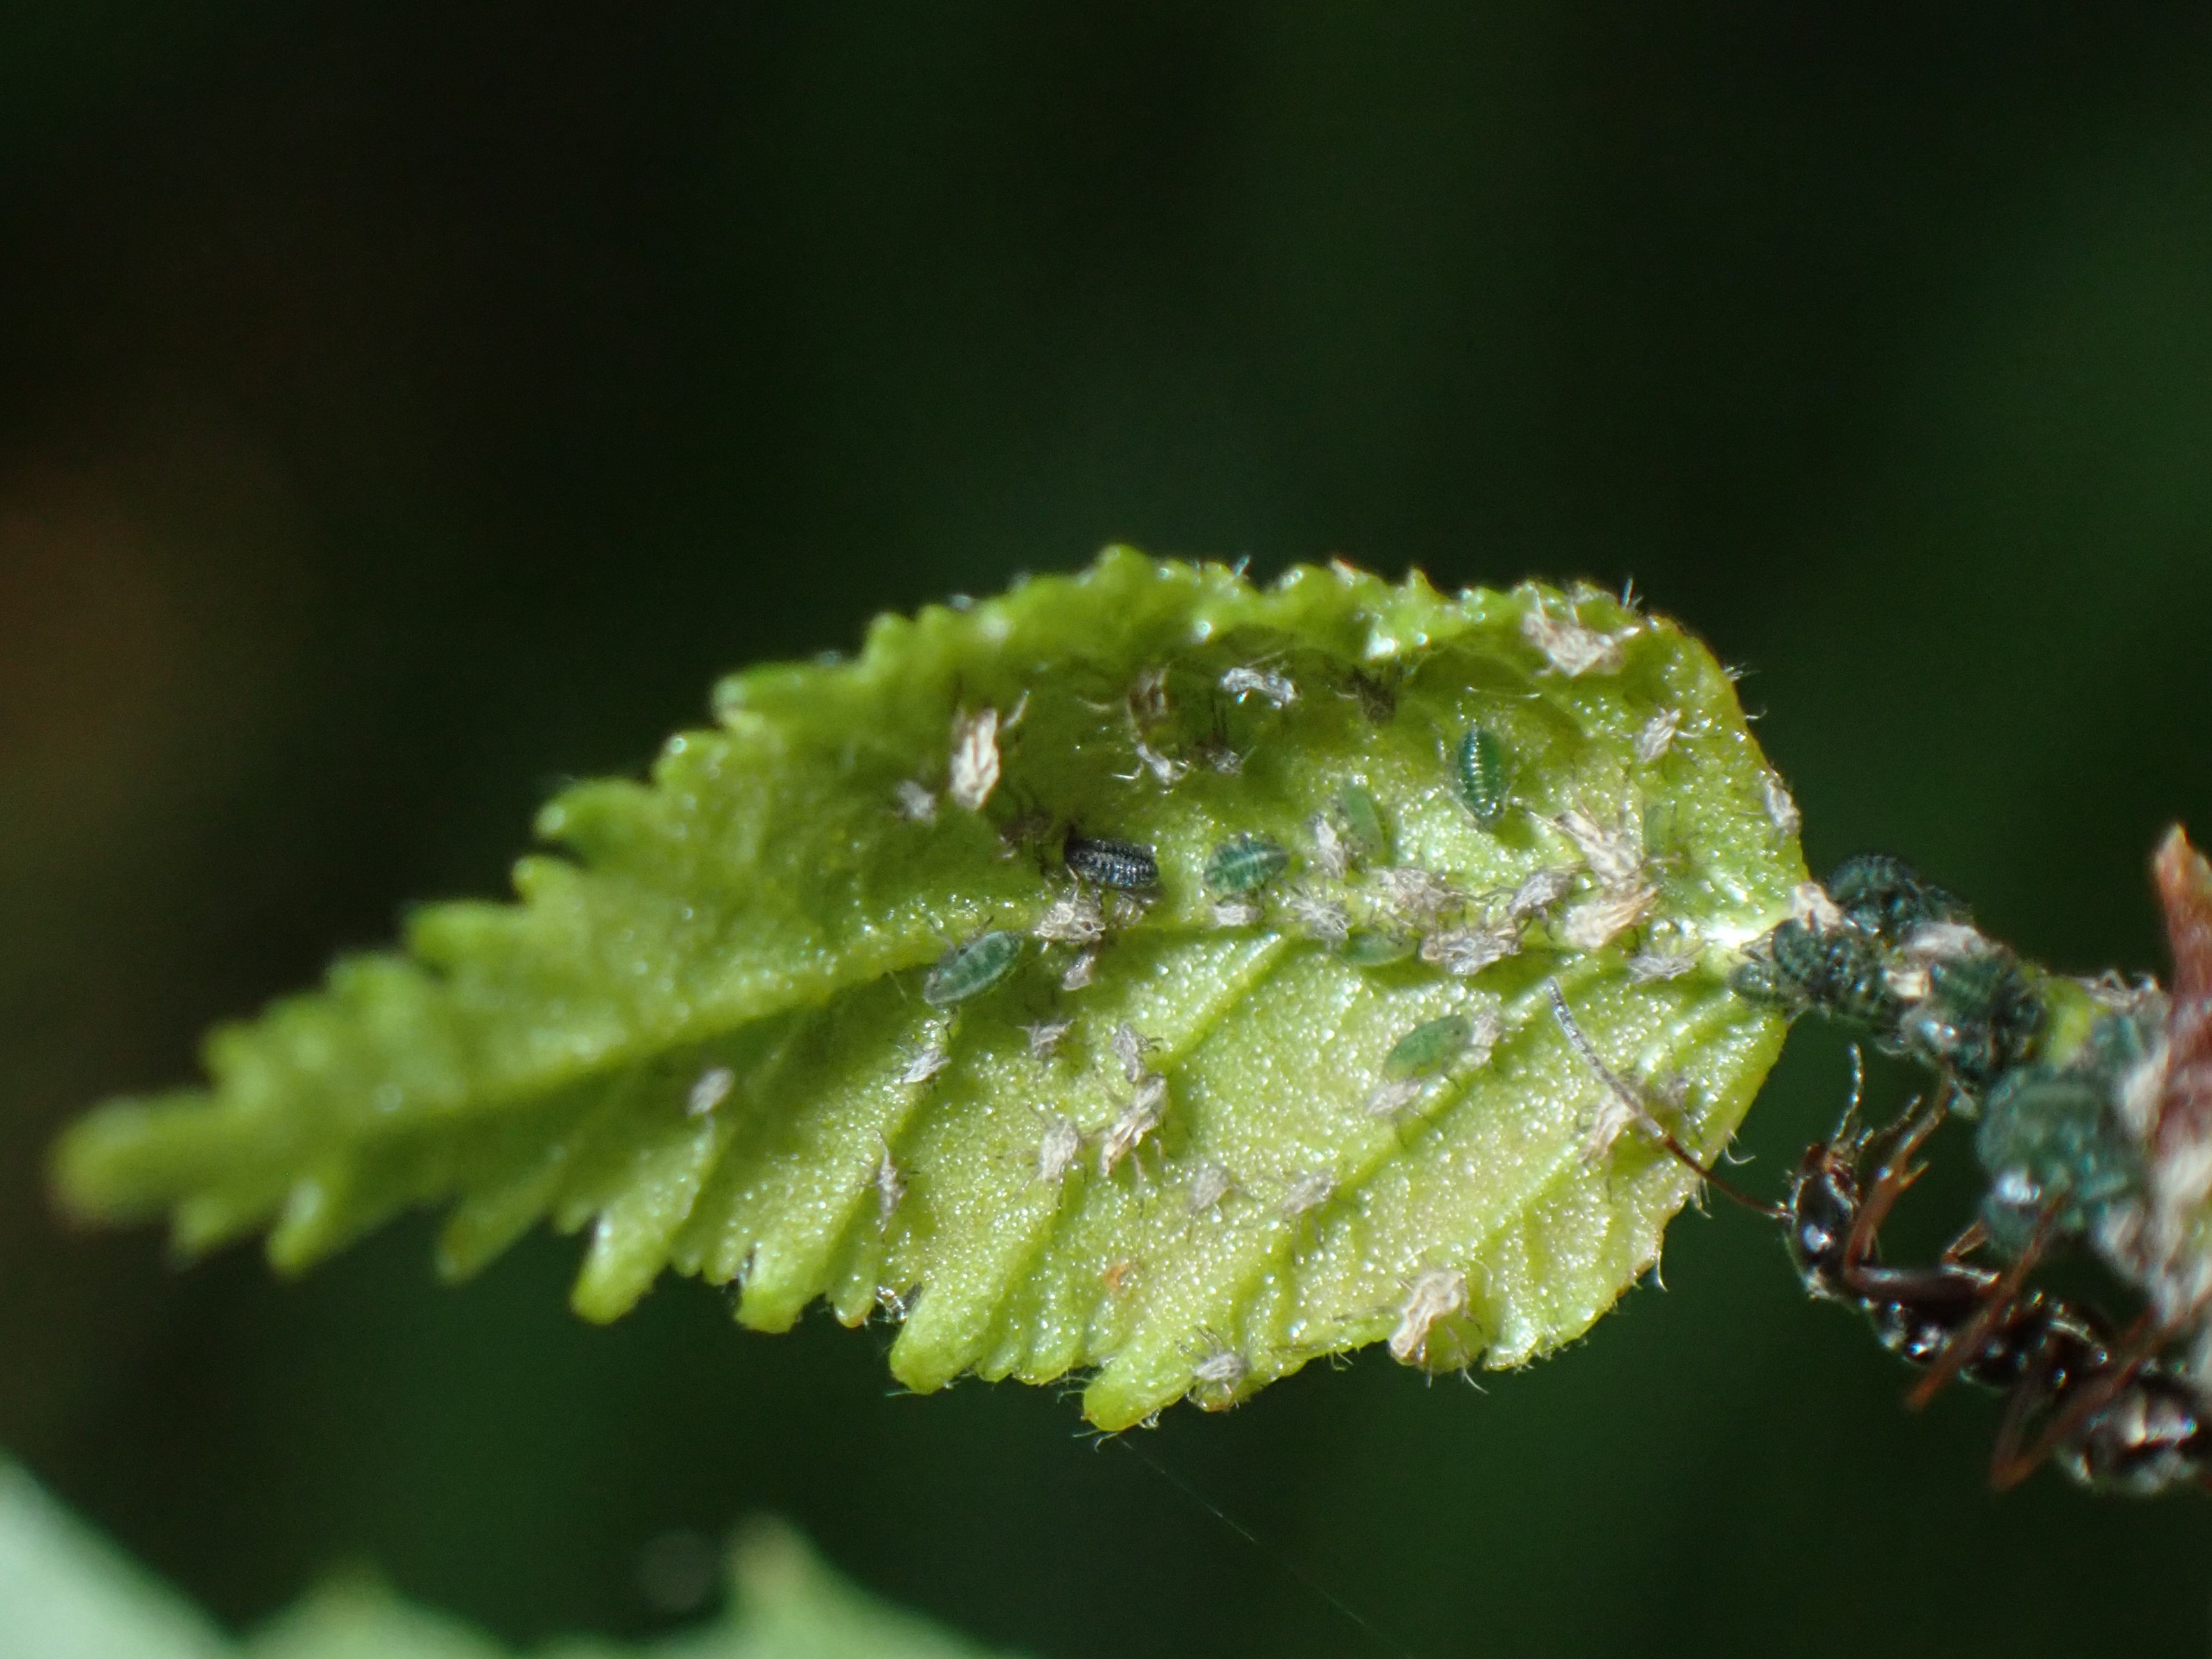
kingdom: Animalia
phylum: Arthropoda
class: Insecta
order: Hemiptera
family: Aphididae
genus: Glyphina
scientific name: Glyphina betulae
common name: Birkemaskebladlus
